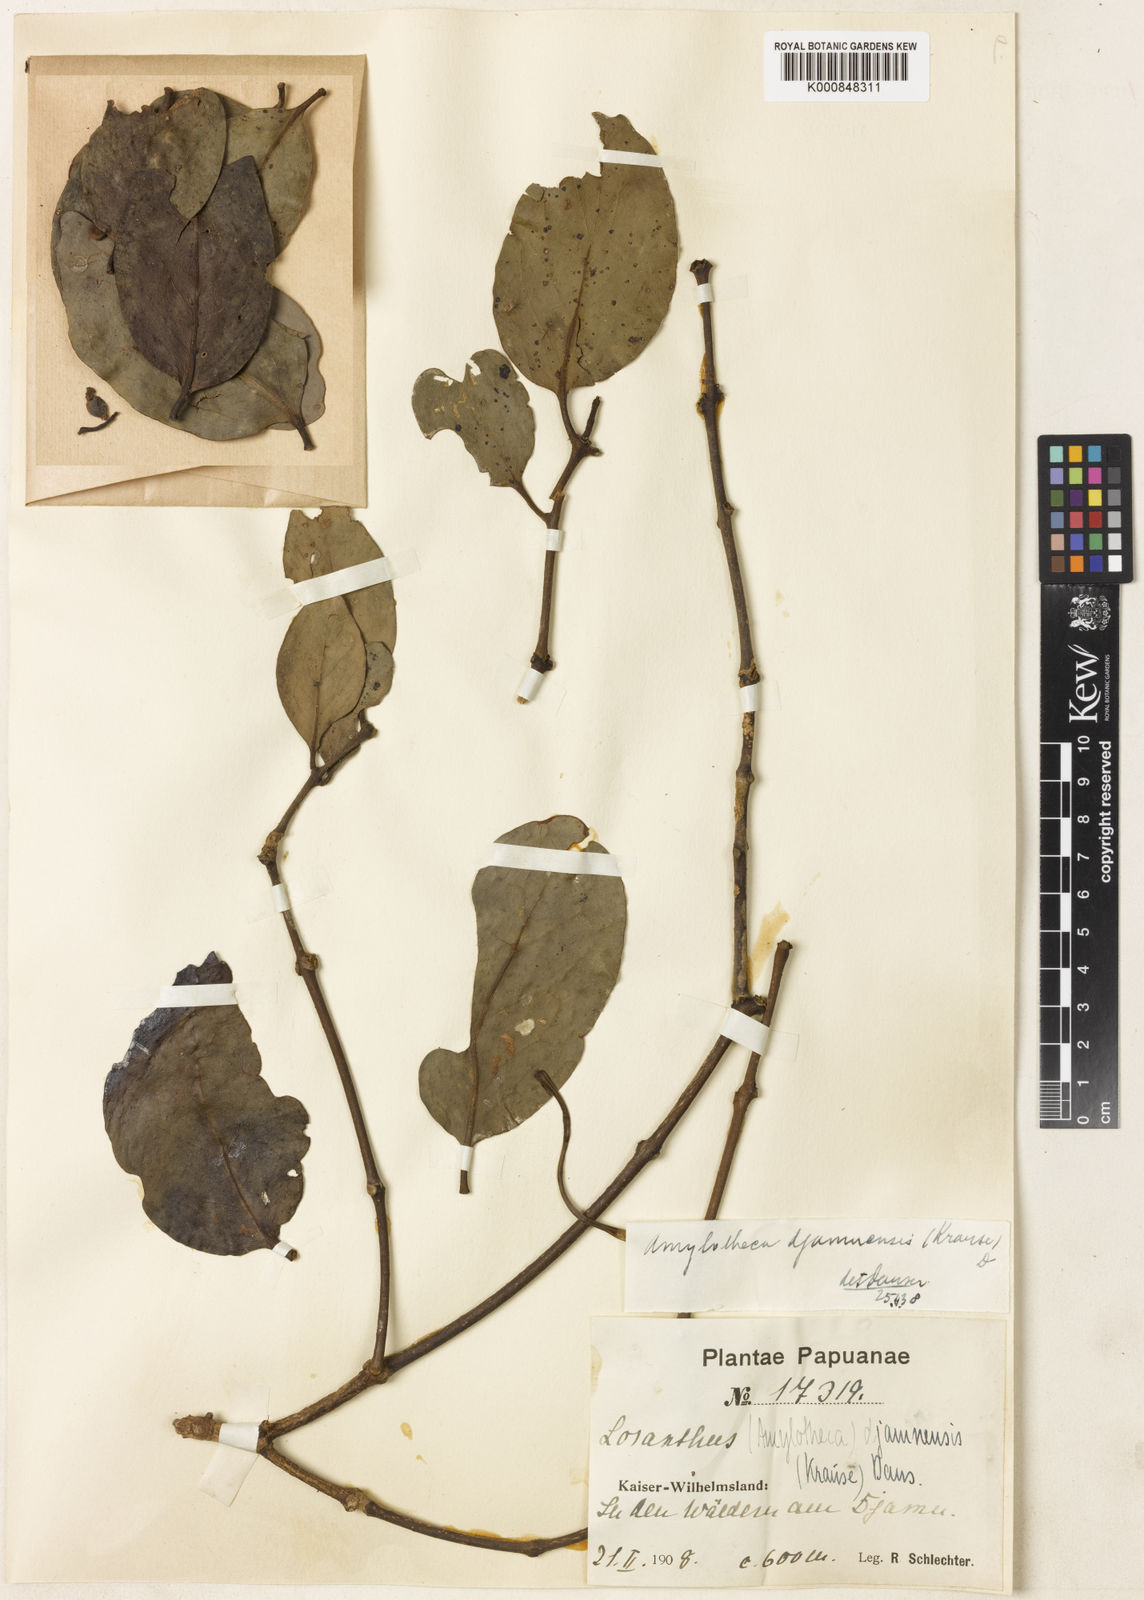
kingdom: Plantae
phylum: Tracheophyta
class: Magnoliopsida
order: Santalales
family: Loranthaceae
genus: Decaisnina
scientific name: Decaisnina djamuensis
